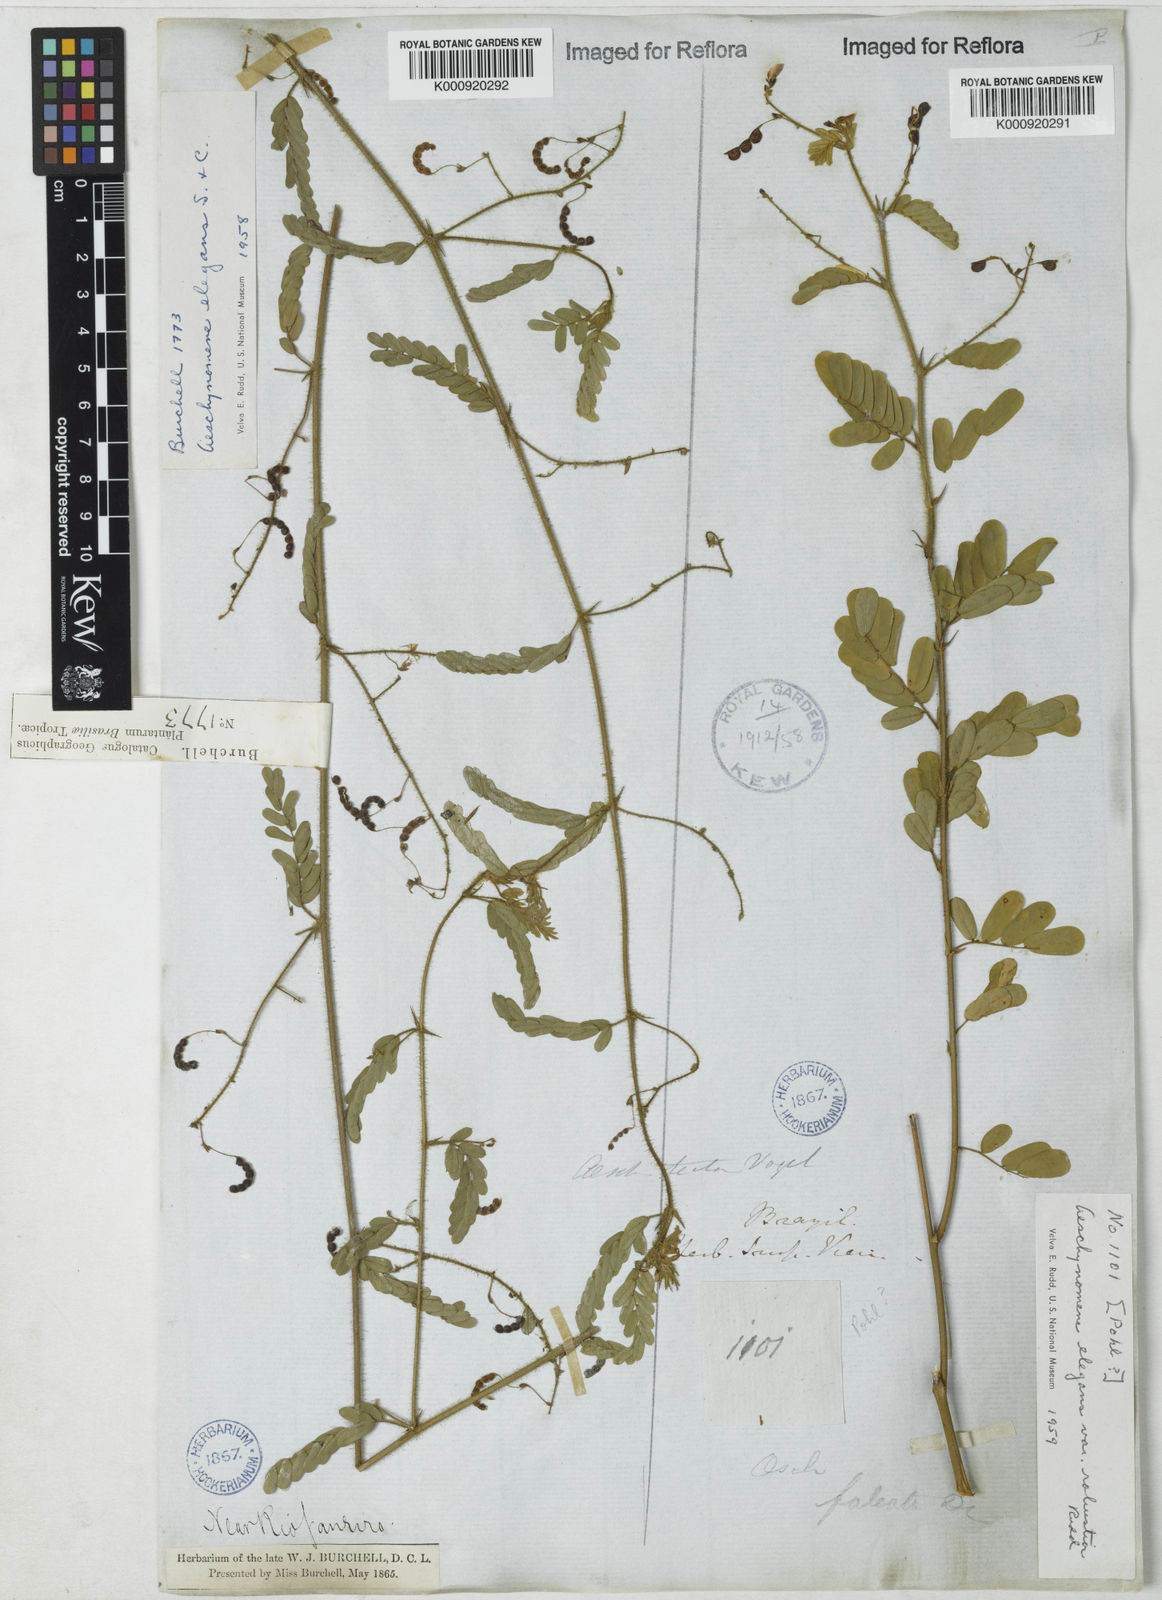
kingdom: Plantae
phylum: Tracheophyta
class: Magnoliopsida
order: Fabales
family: Fabaceae
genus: Ctenodon
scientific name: Ctenodon elegans
